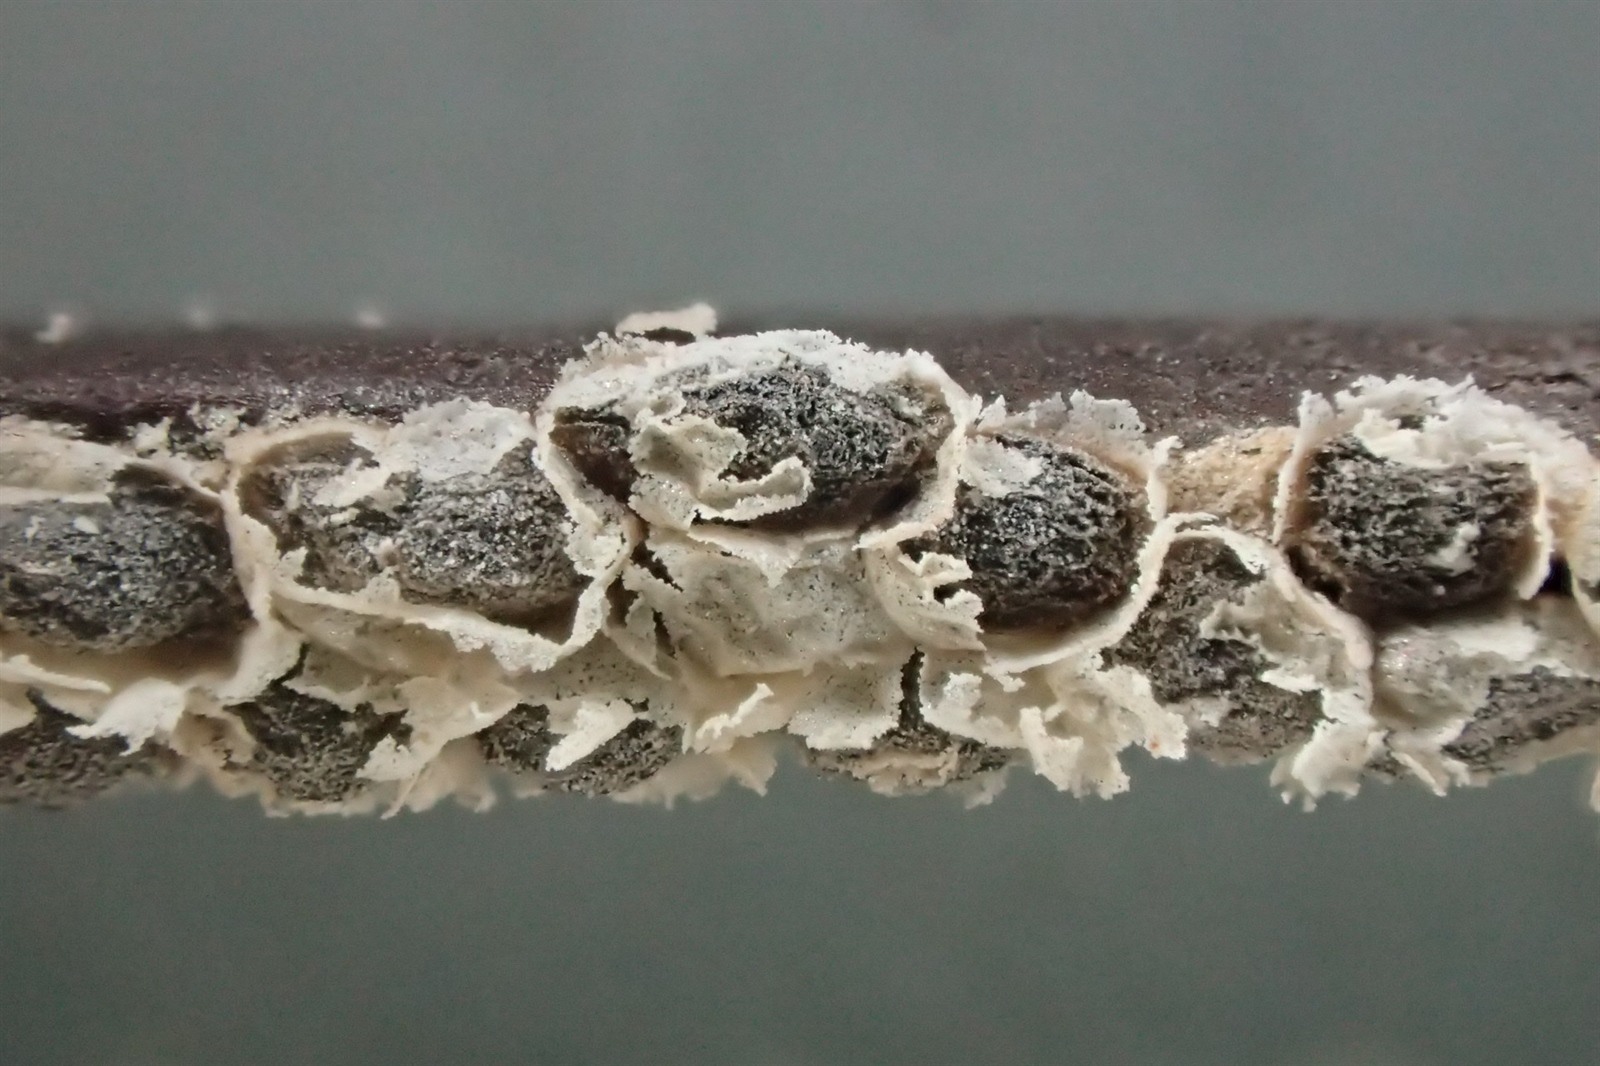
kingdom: Protozoa
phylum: Mycetozoa
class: Myxomycetes
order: Physarales
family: Didymiaceae
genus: Polyschismium
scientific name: Polyschismium chailletii
